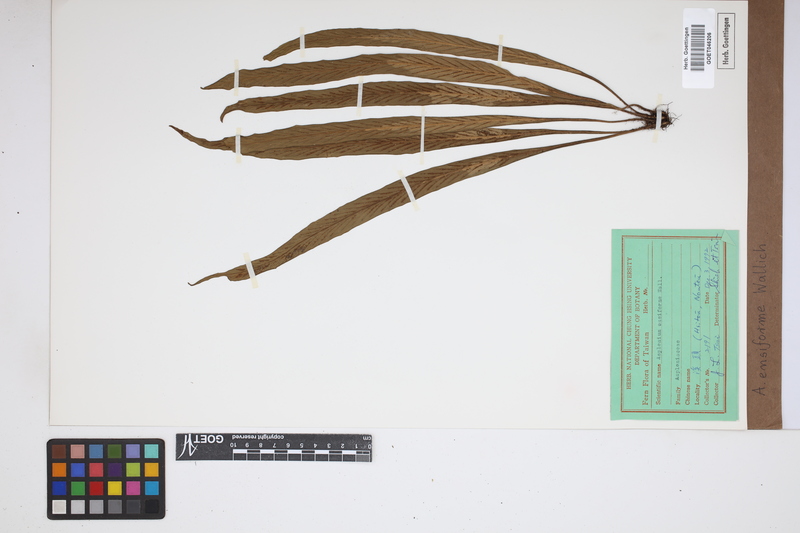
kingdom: Plantae
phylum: Tracheophyta
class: Polypodiopsida
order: Polypodiales
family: Aspleniaceae
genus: Asplenium
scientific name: Asplenium ensiforme
